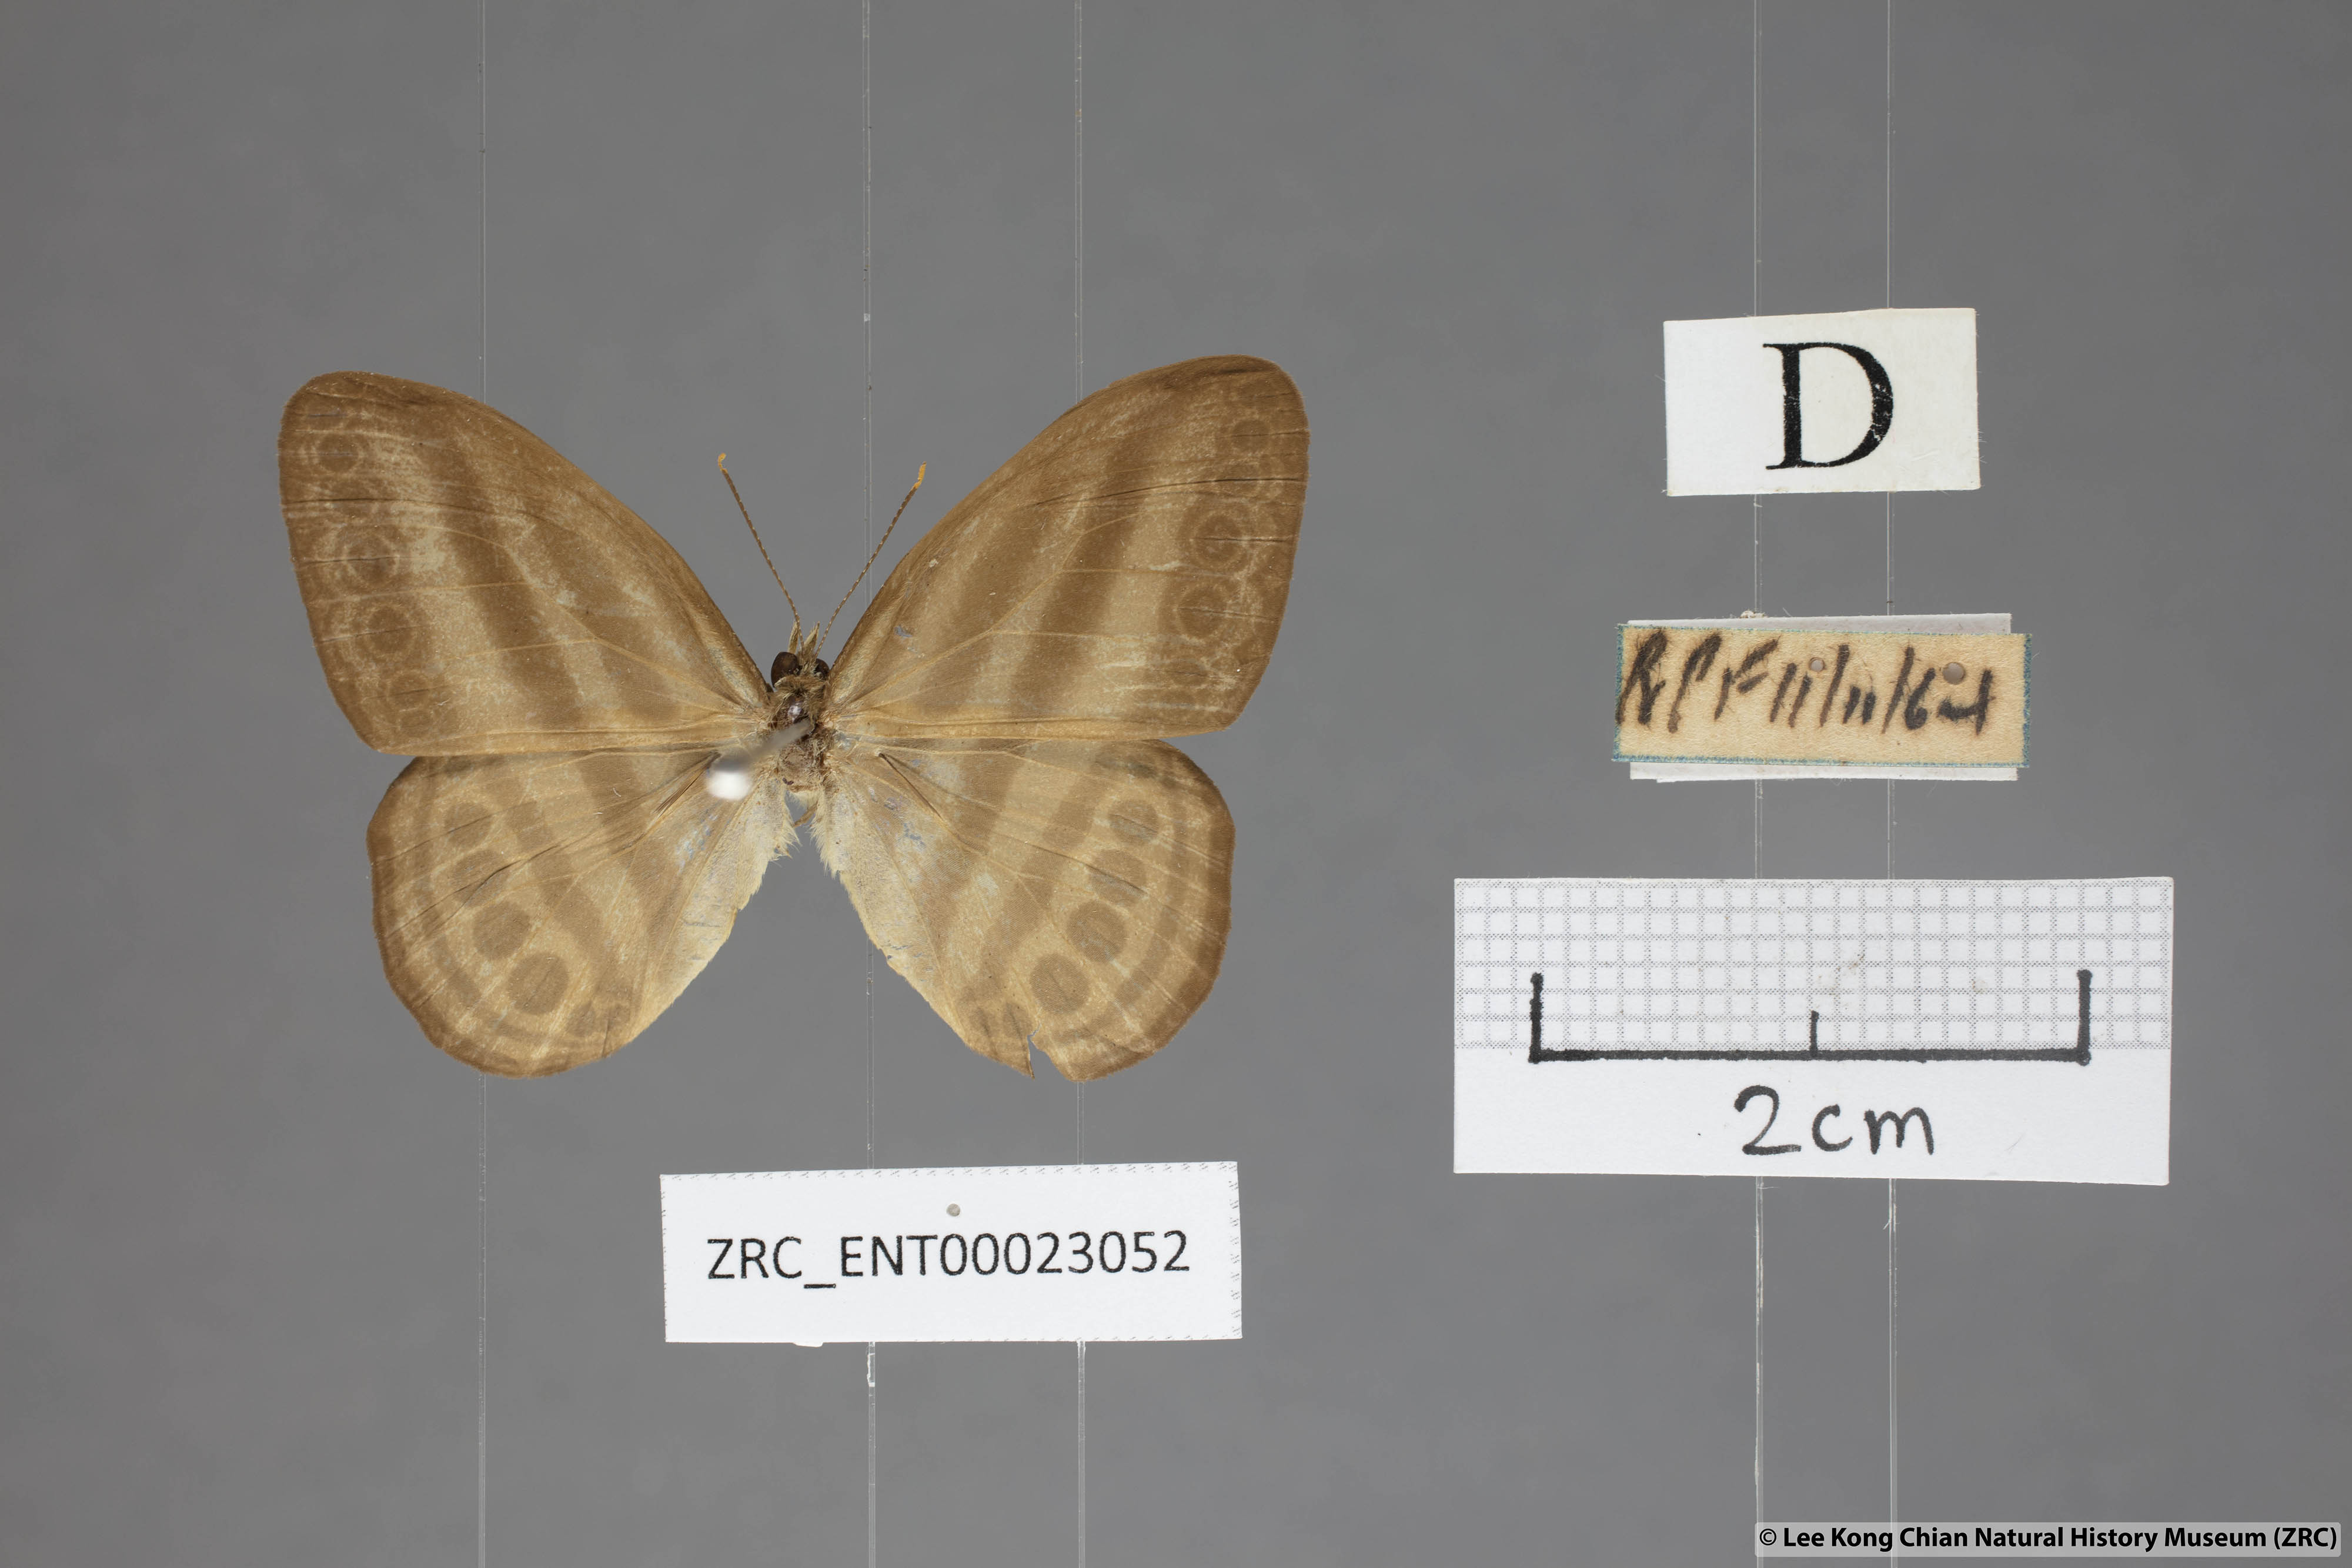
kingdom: Animalia
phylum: Arthropoda
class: Insecta
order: Lepidoptera
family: Nymphalidae
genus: Ragadia
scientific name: Ragadia makata
